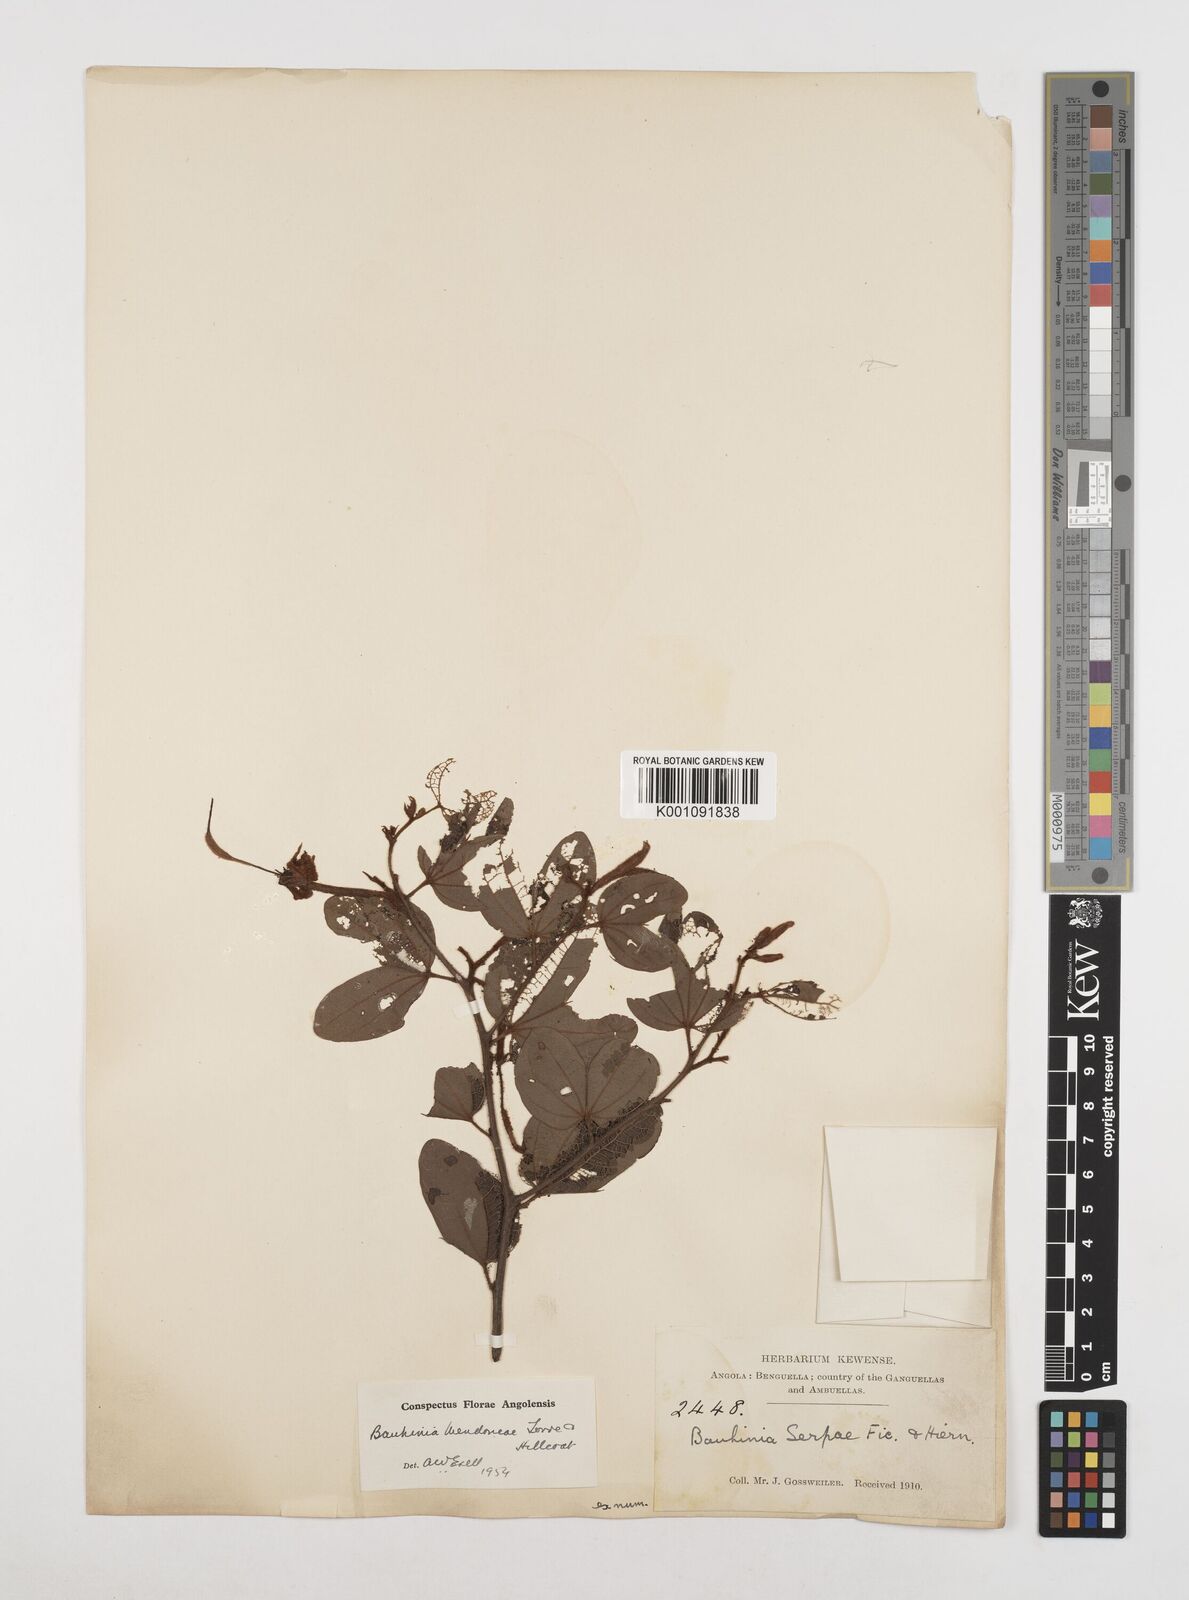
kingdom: Plantae
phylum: Tracheophyta
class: Magnoliopsida
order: Fabales
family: Fabaceae
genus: Bauhinia
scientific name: Bauhinia mendoncae
